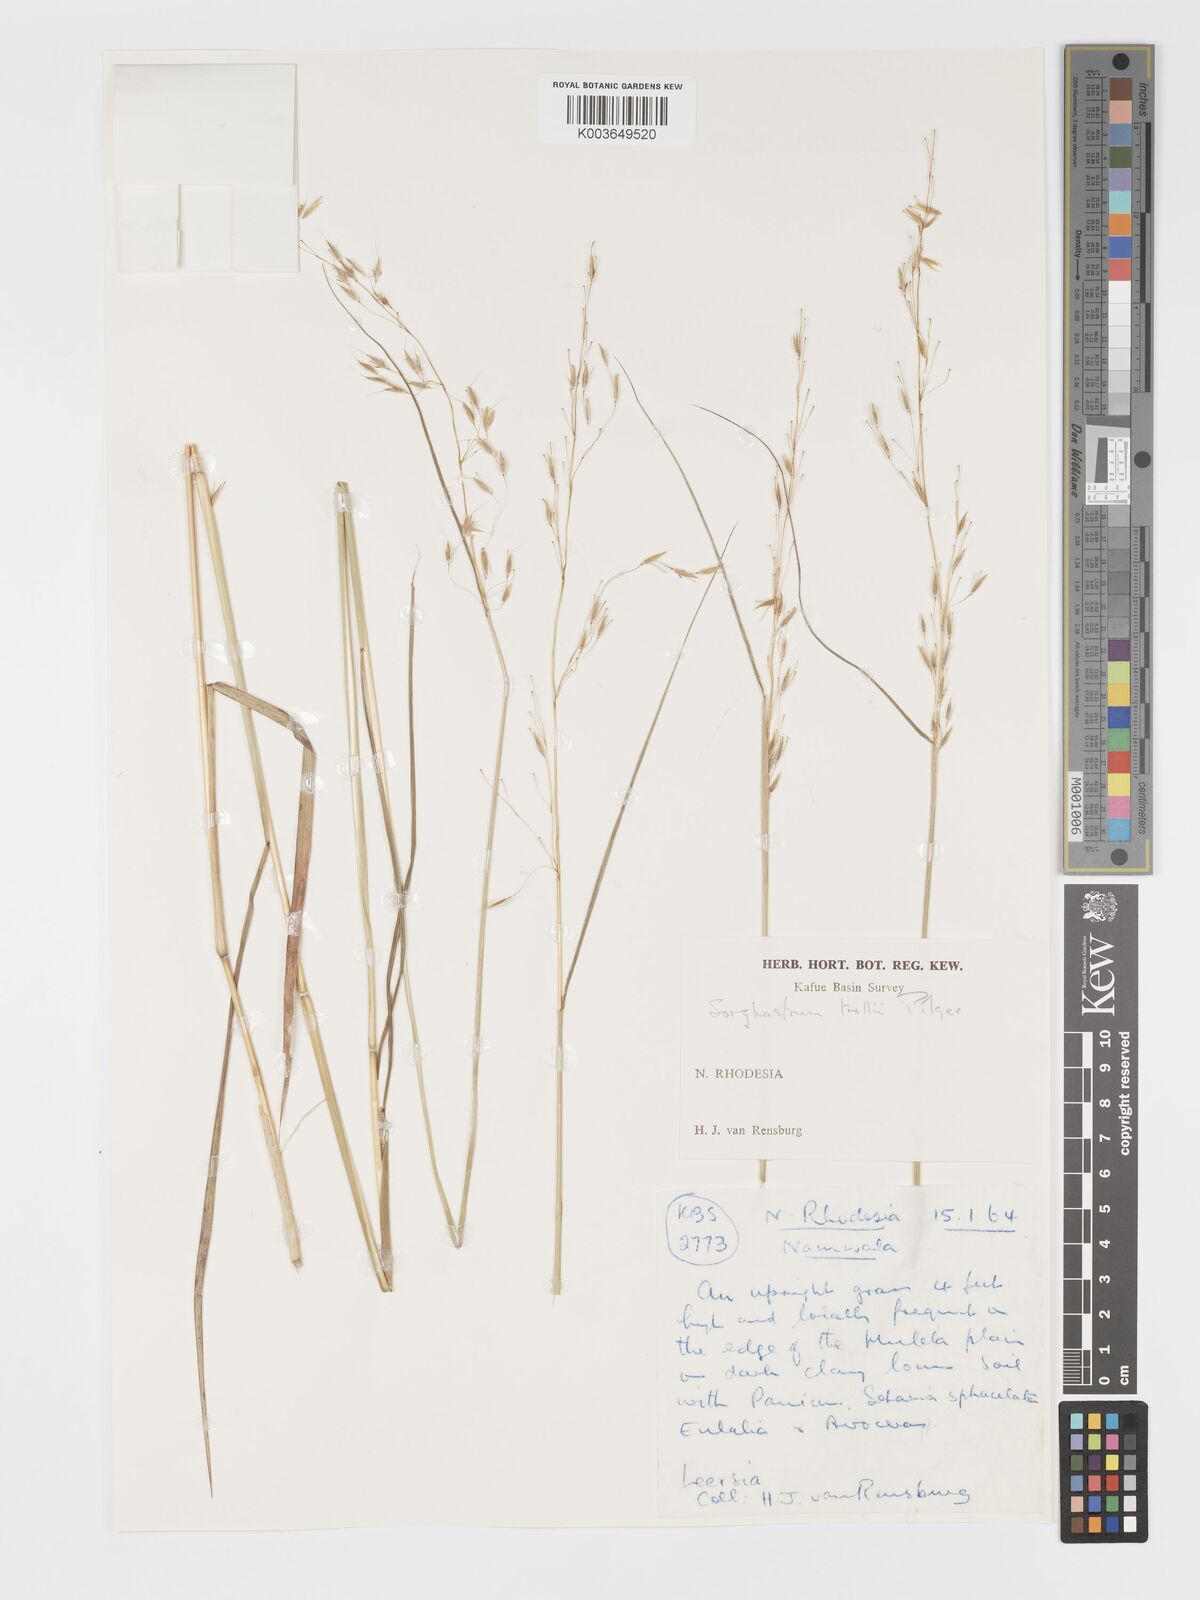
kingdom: Plantae
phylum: Tracheophyta
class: Liliopsida
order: Poales
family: Poaceae
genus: Sorghastrum
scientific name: Sorghastrum nudipes
